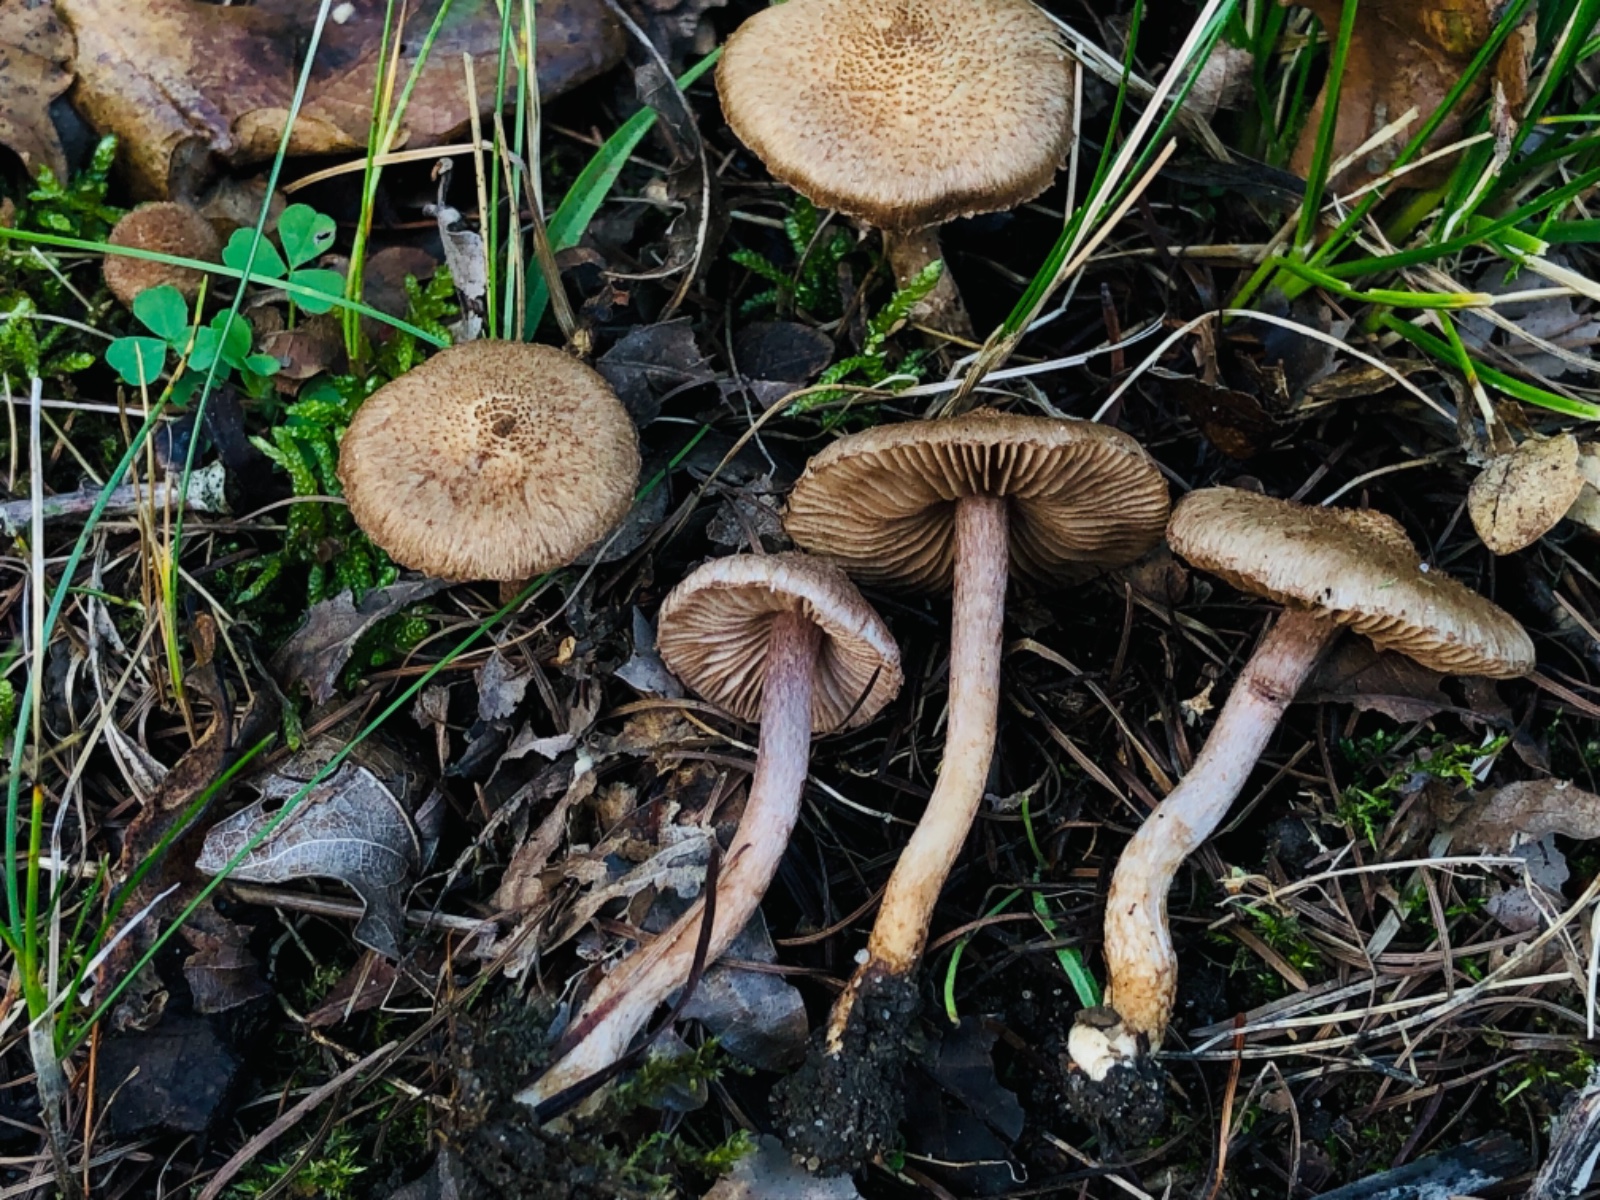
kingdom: Fungi
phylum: Basidiomycota
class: Agaricomycetes
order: Agaricales
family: Inocybaceae
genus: Inocybe
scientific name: Inocybe cincinnata
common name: lillabladet trævlhat
